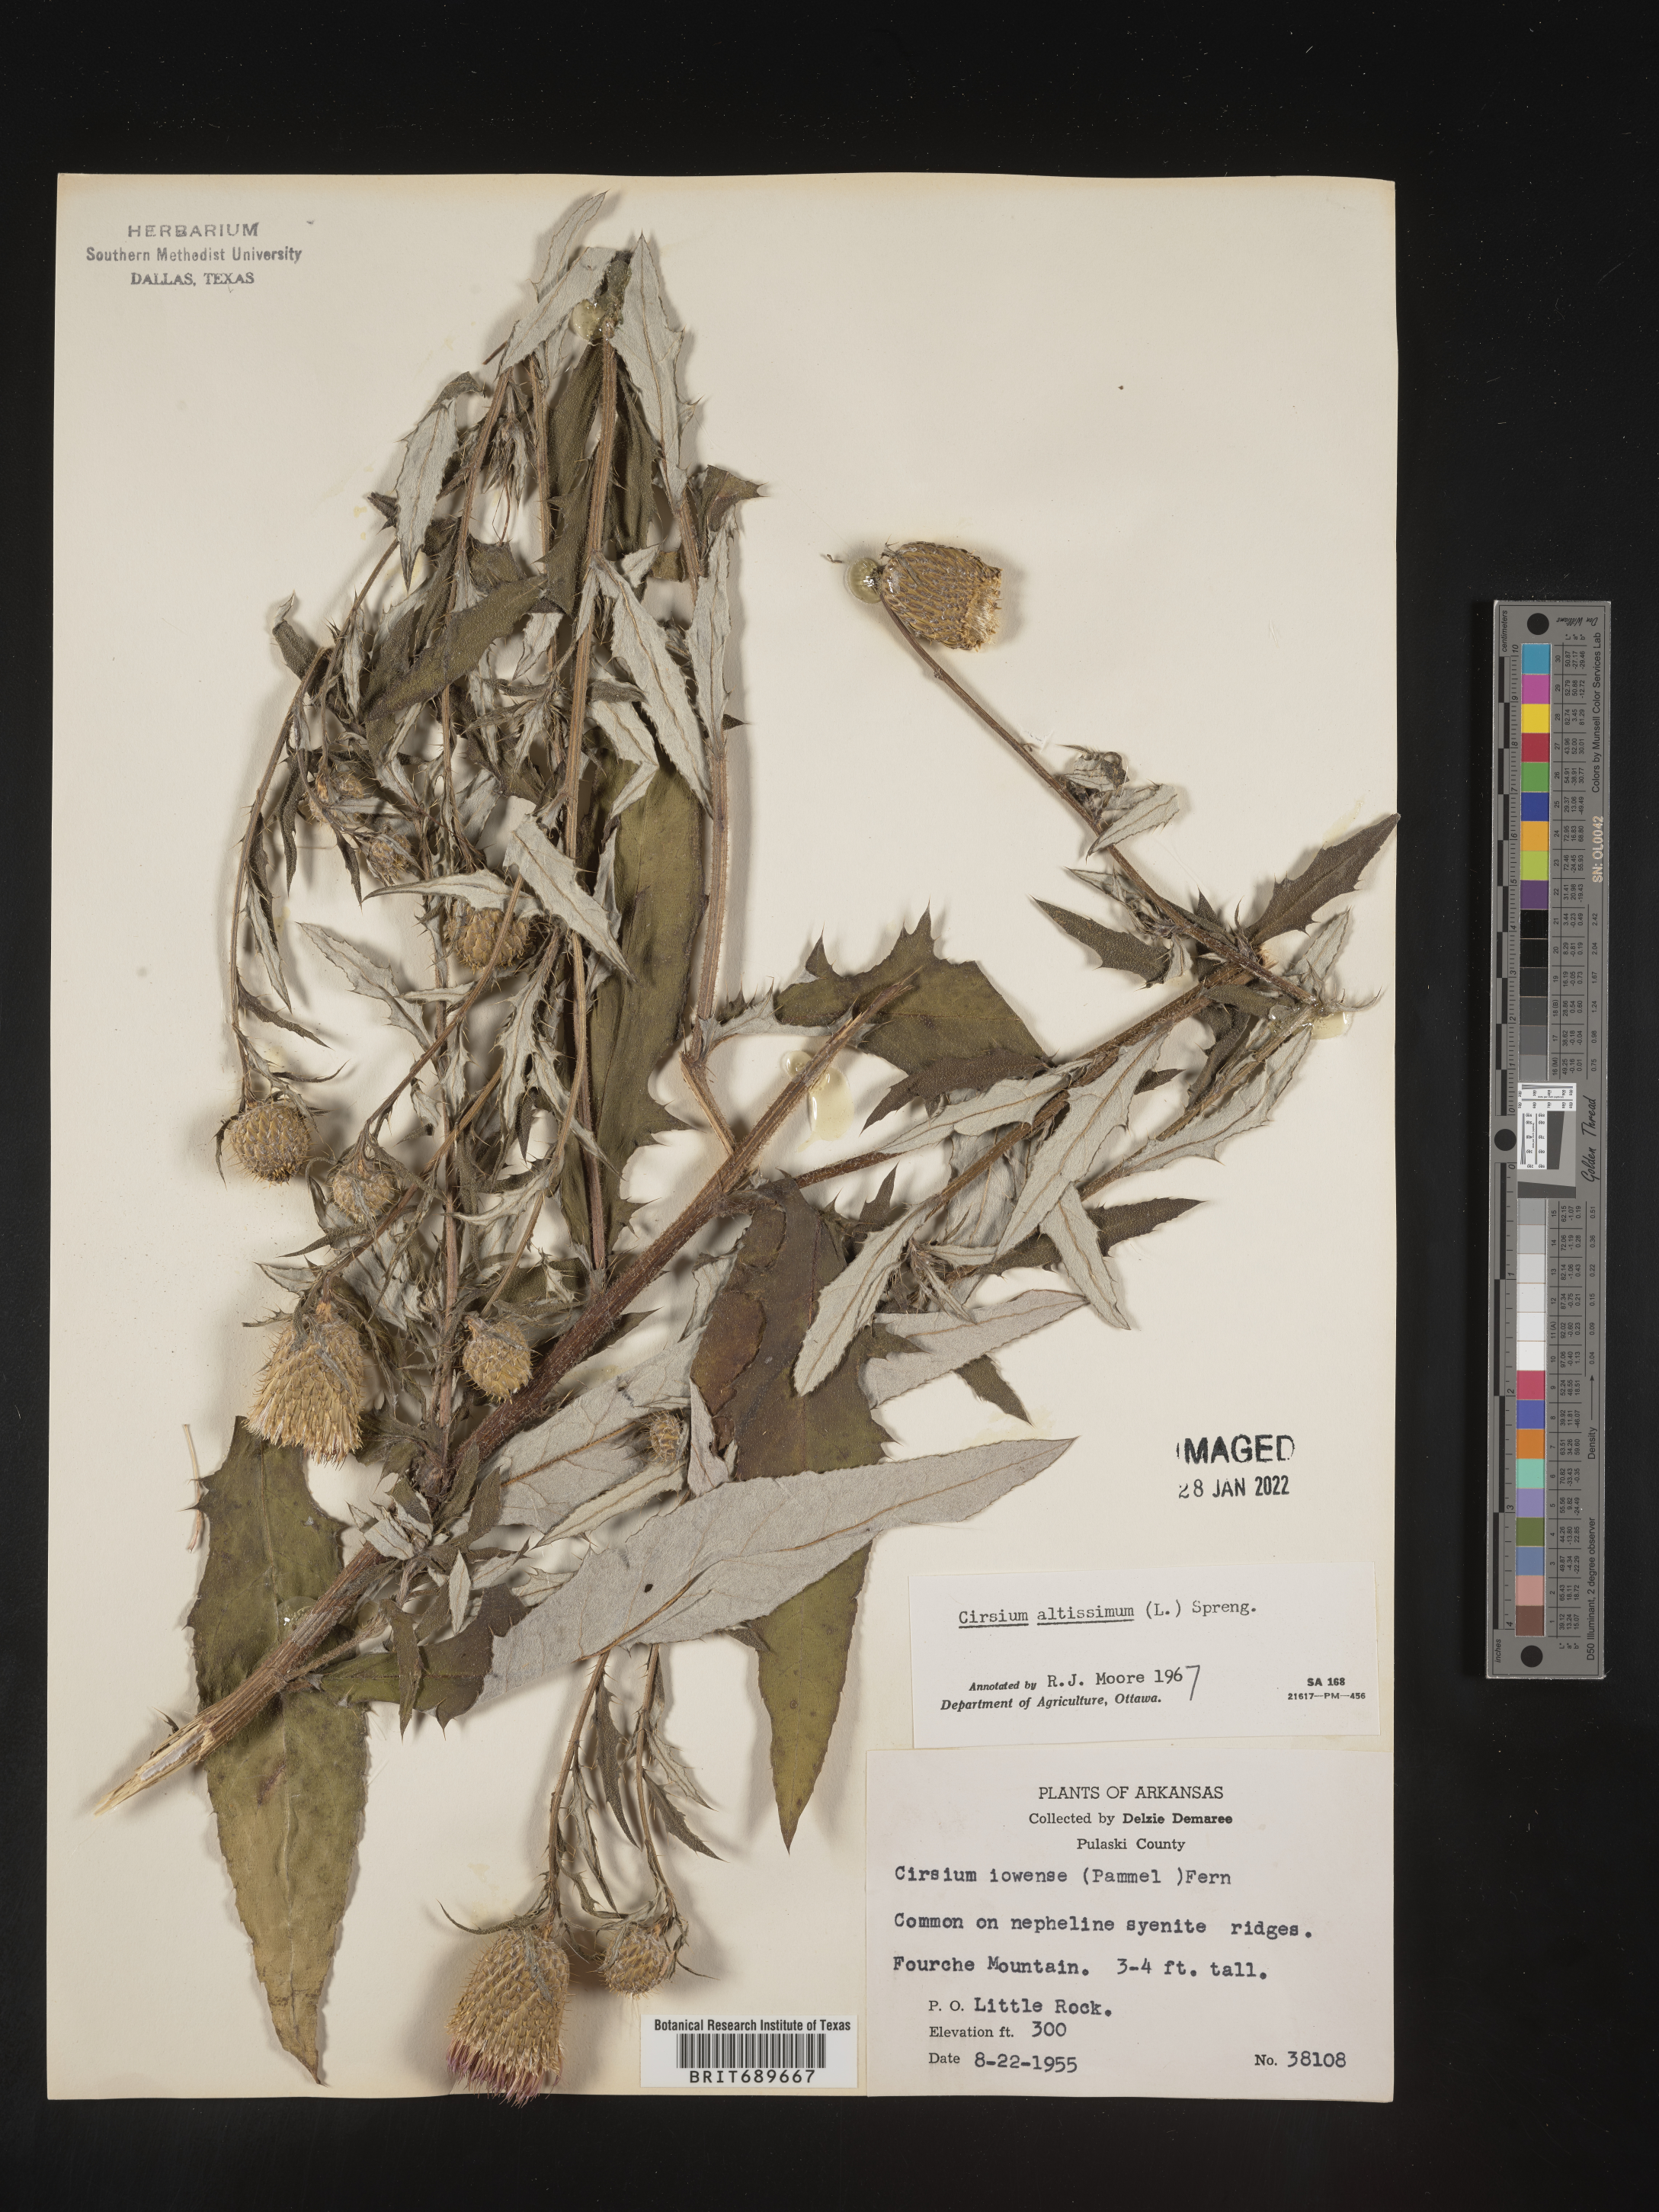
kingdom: Plantae
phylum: Tracheophyta
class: Magnoliopsida
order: Asterales
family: Asteraceae
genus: Cirsium
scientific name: Cirsium altissimum
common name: Roadside thistle
